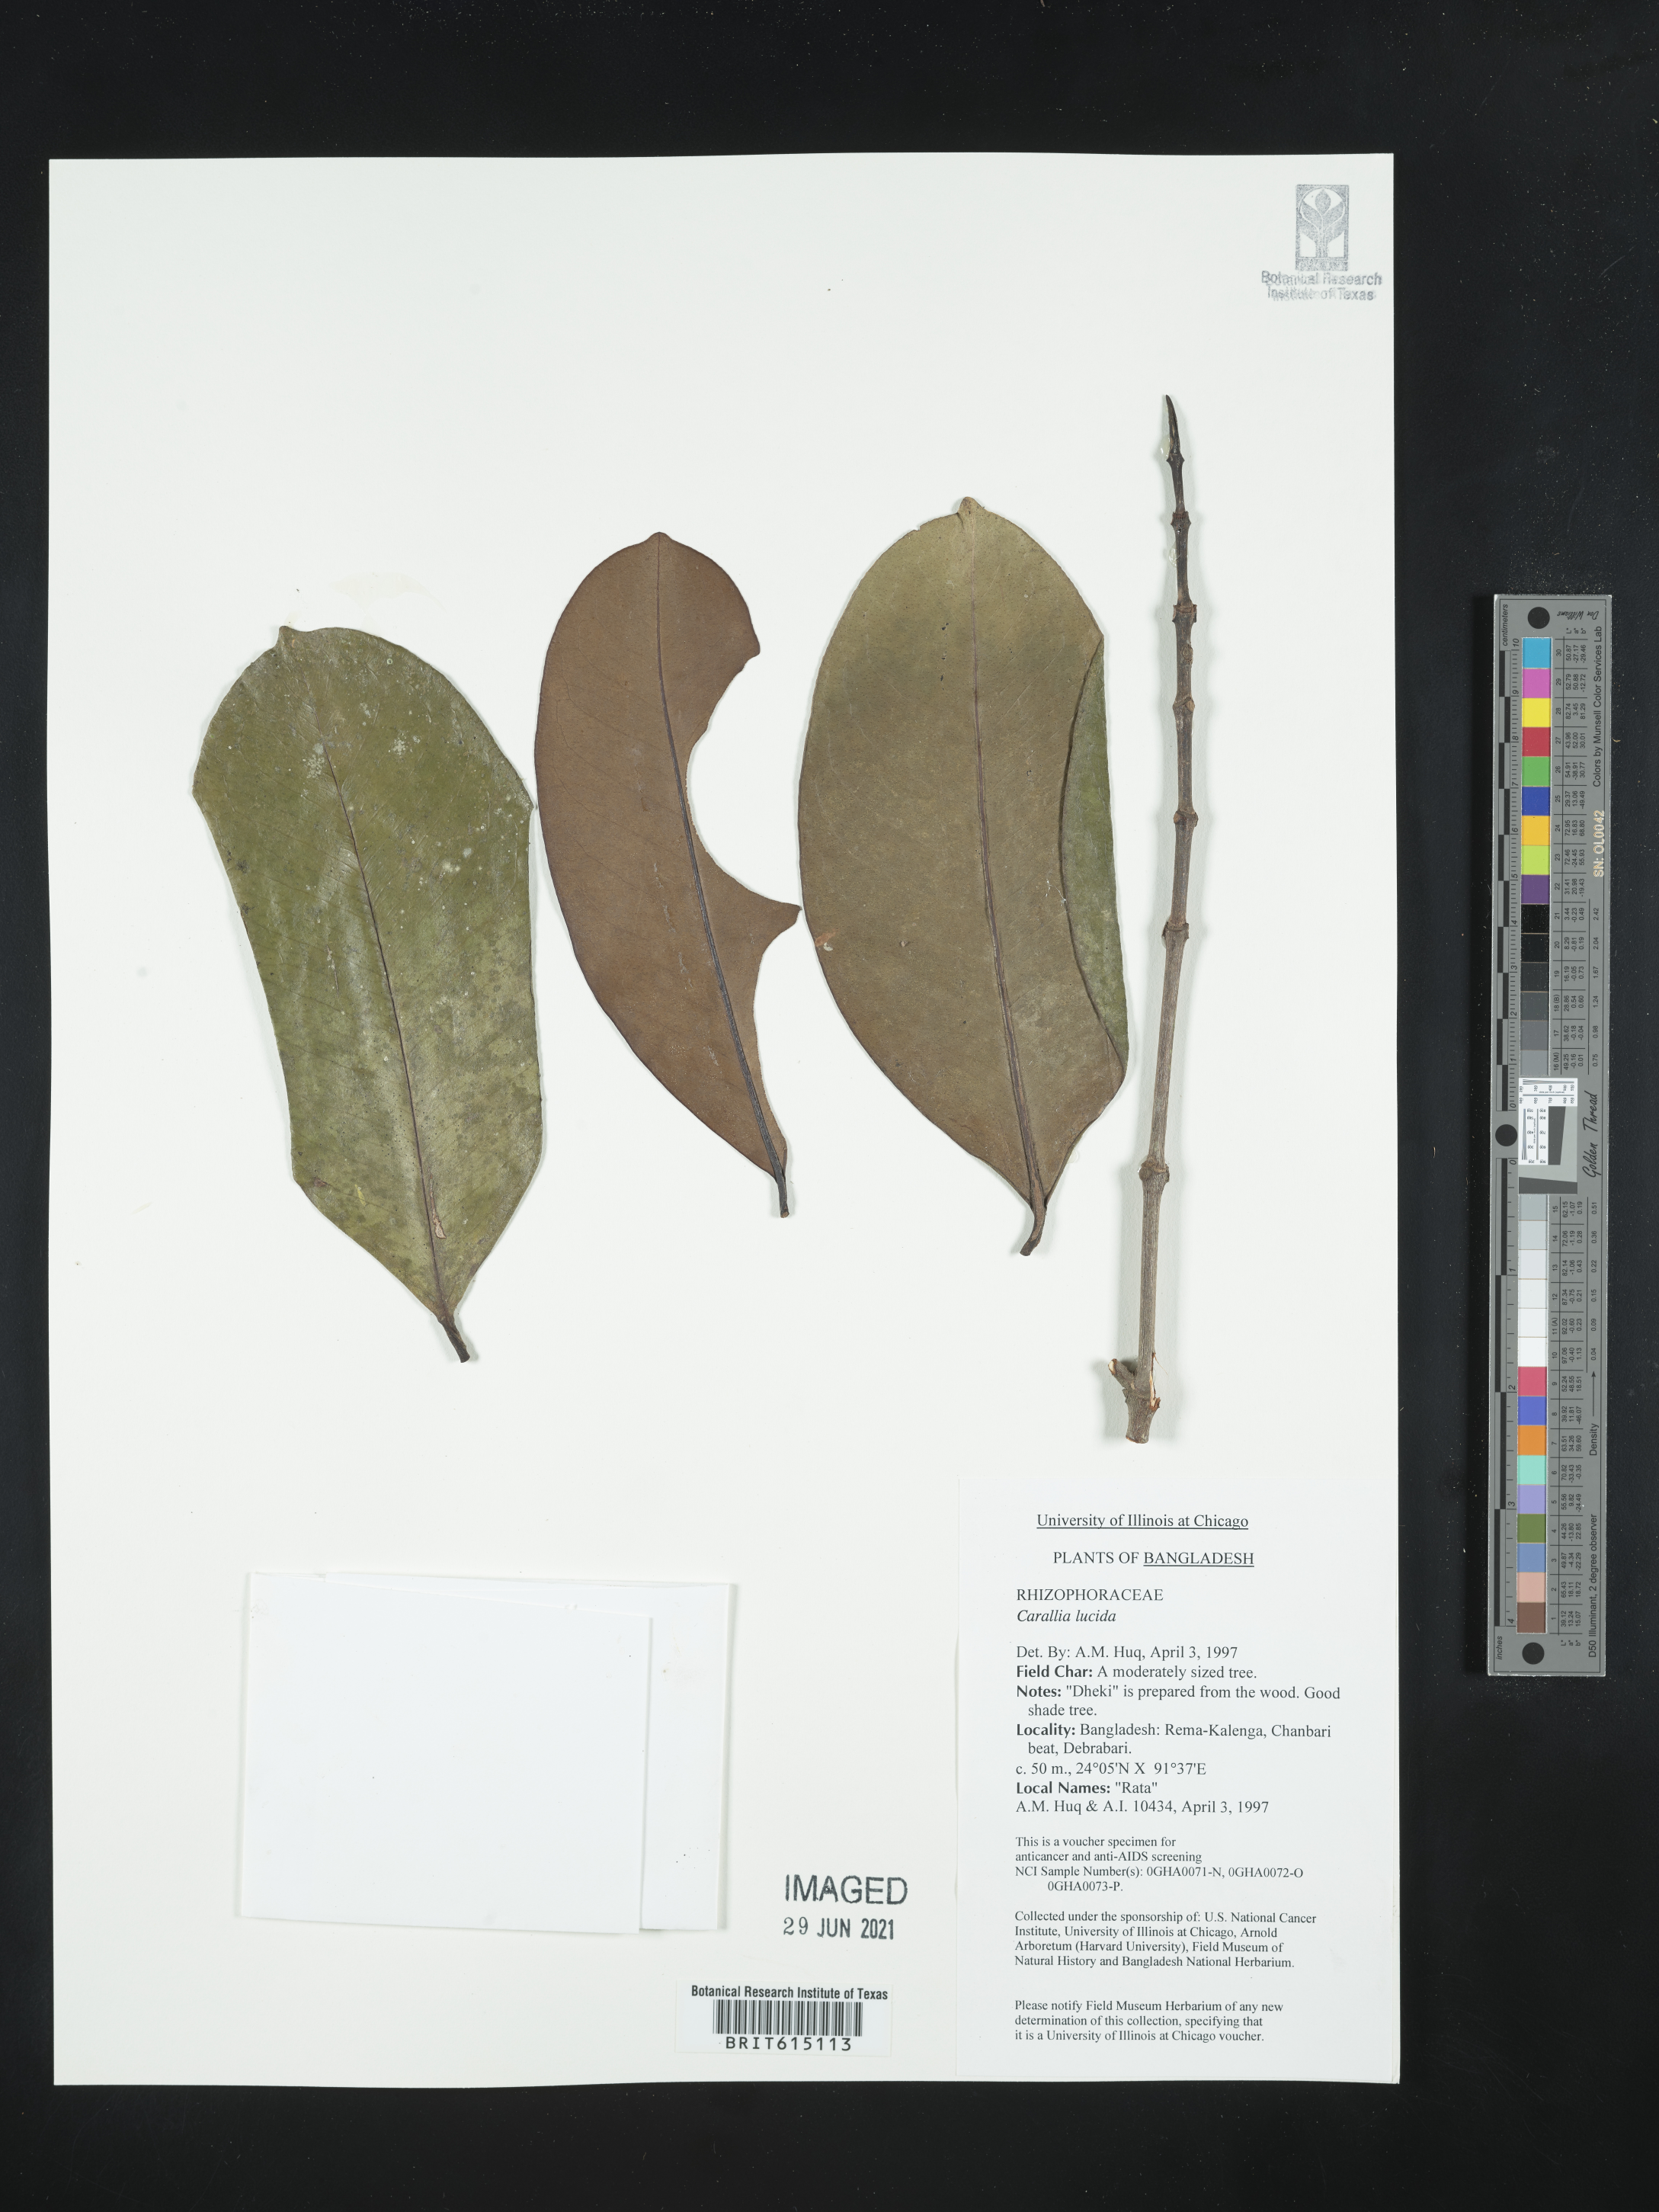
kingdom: Plantae
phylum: Tracheophyta
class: Magnoliopsida
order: Malpighiales
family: Rhizophoraceae
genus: Carallia
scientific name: Carallia brachiata
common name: Carallawood
